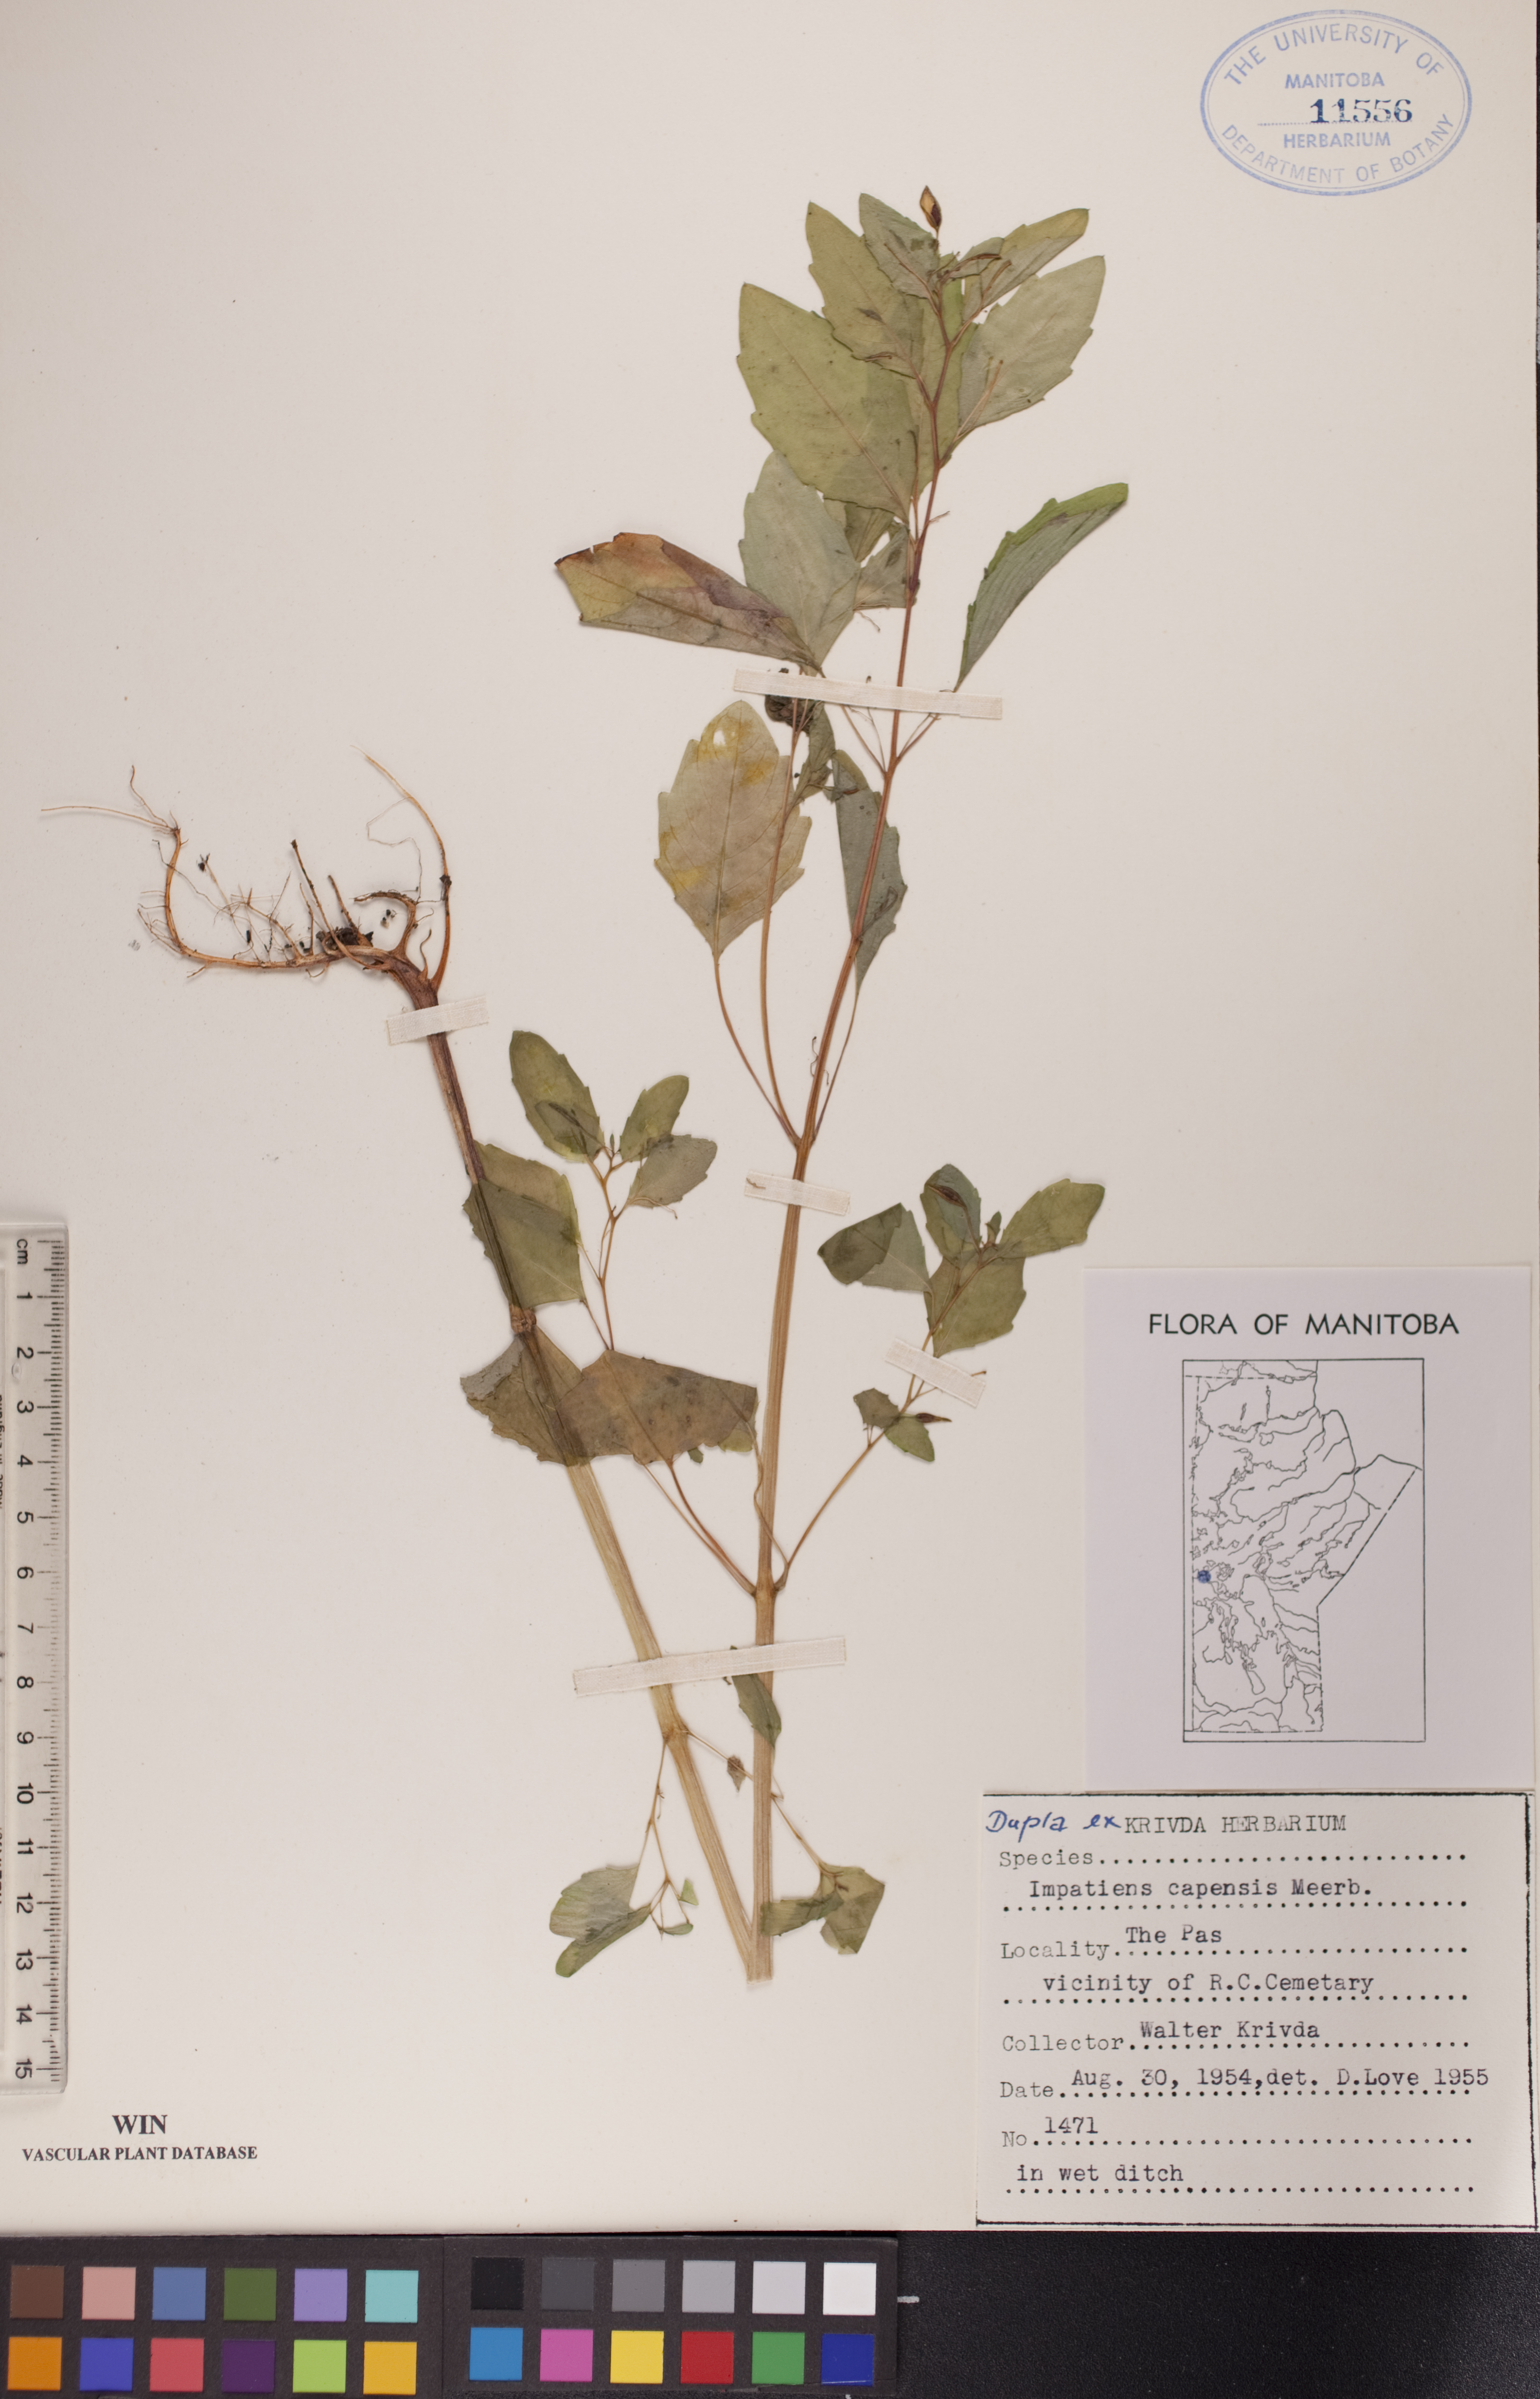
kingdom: Plantae
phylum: Tracheophyta
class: Magnoliopsida
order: Ericales
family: Balsaminaceae
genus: Impatiens
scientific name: Impatiens capensis
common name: Orange balsam
